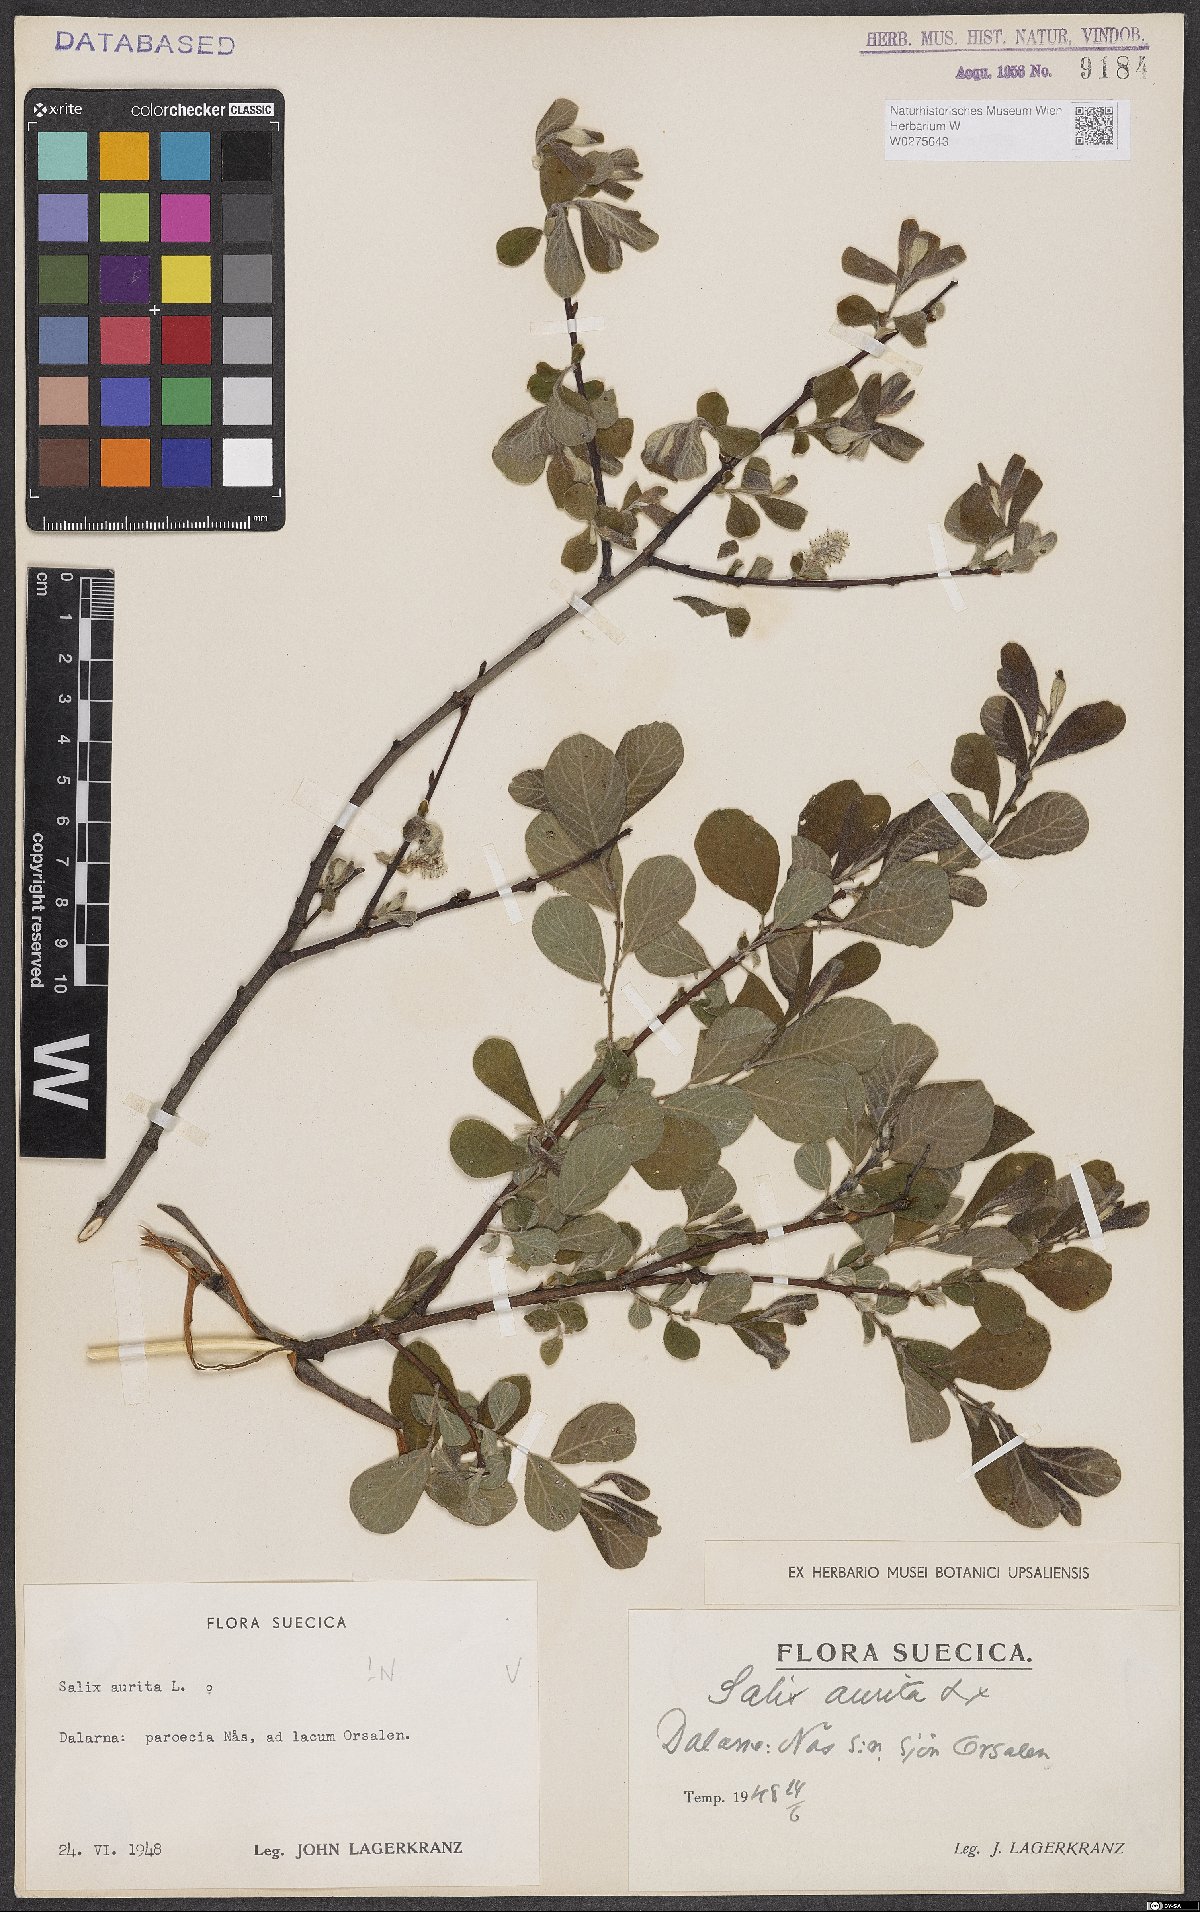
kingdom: Plantae
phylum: Tracheophyta
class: Magnoliopsida
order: Malpighiales
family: Salicaceae
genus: Salix
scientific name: Salix aurita
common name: Eared willow
